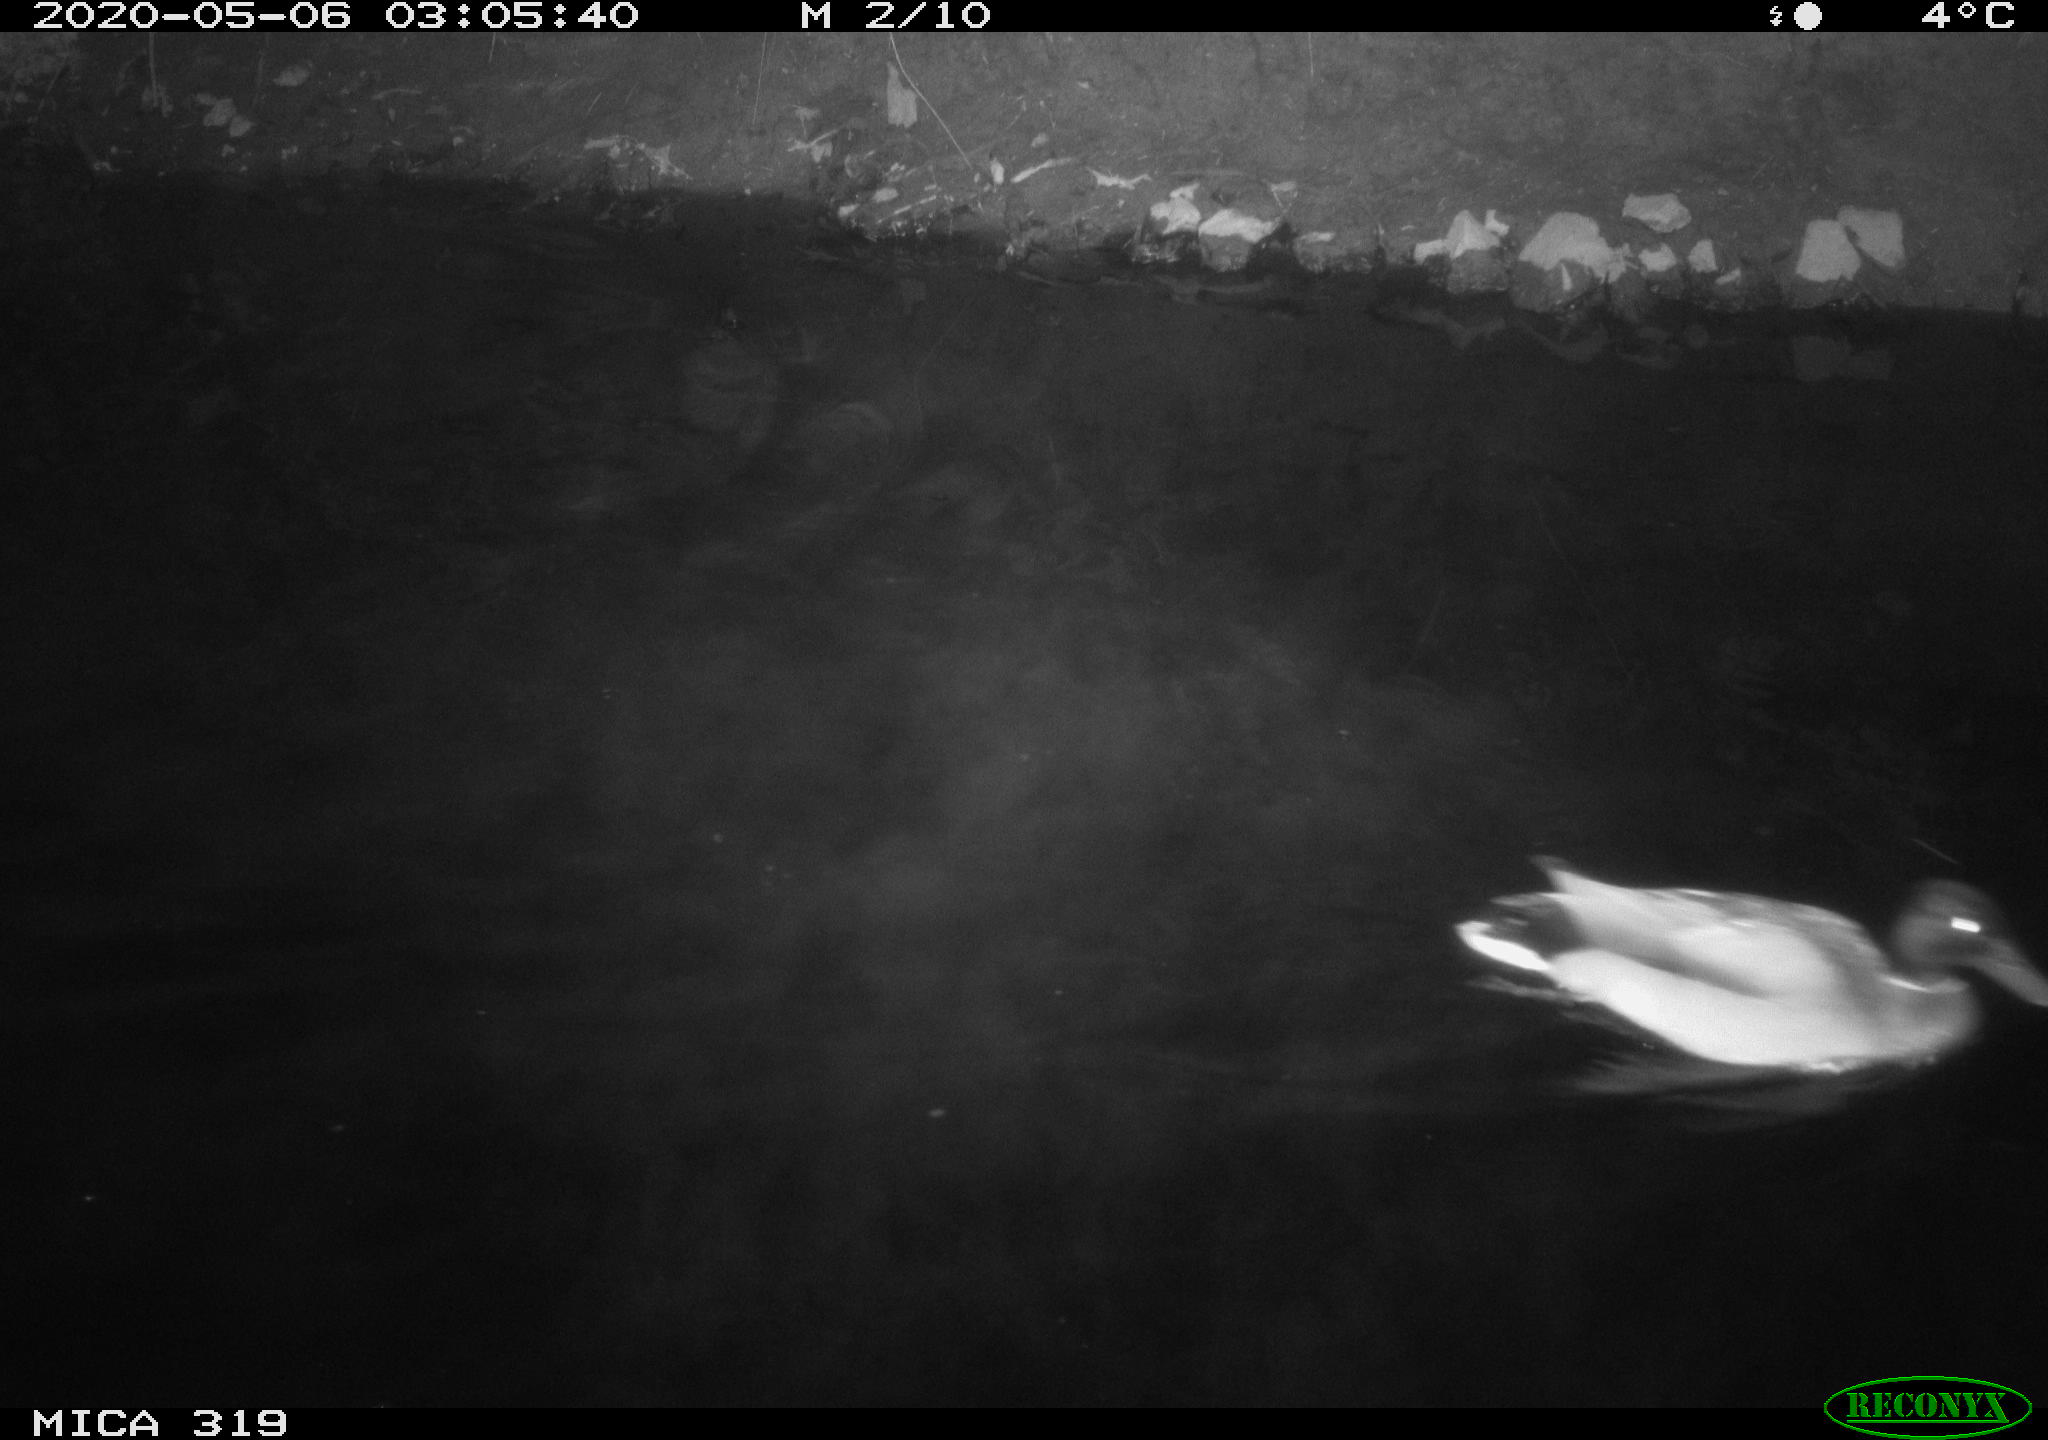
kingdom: Animalia
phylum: Chordata
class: Aves
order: Anseriformes
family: Anatidae
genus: Anas
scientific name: Anas platyrhynchos
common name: Mallard
